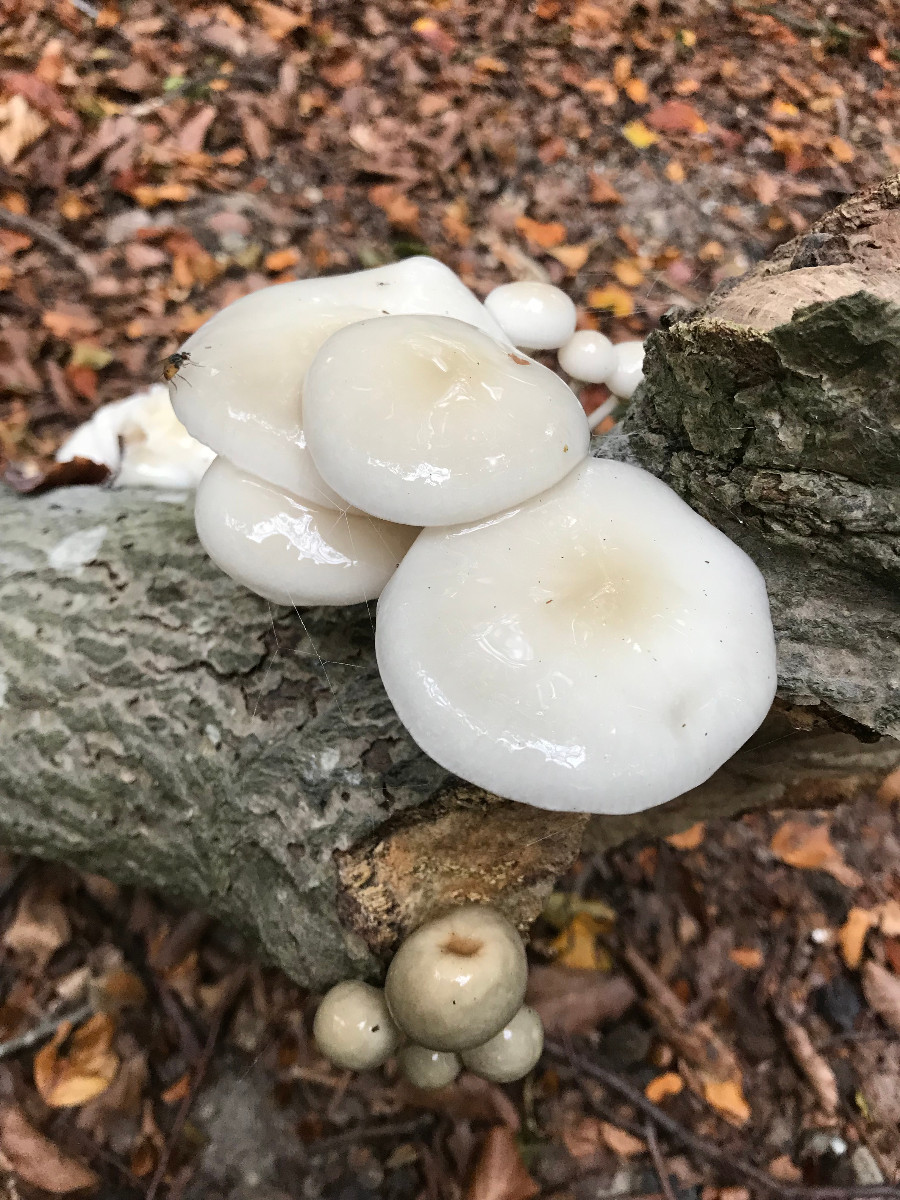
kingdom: Fungi
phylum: Basidiomycota
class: Agaricomycetes
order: Agaricales
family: Physalacriaceae
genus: Mucidula
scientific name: Mucidula mucida
